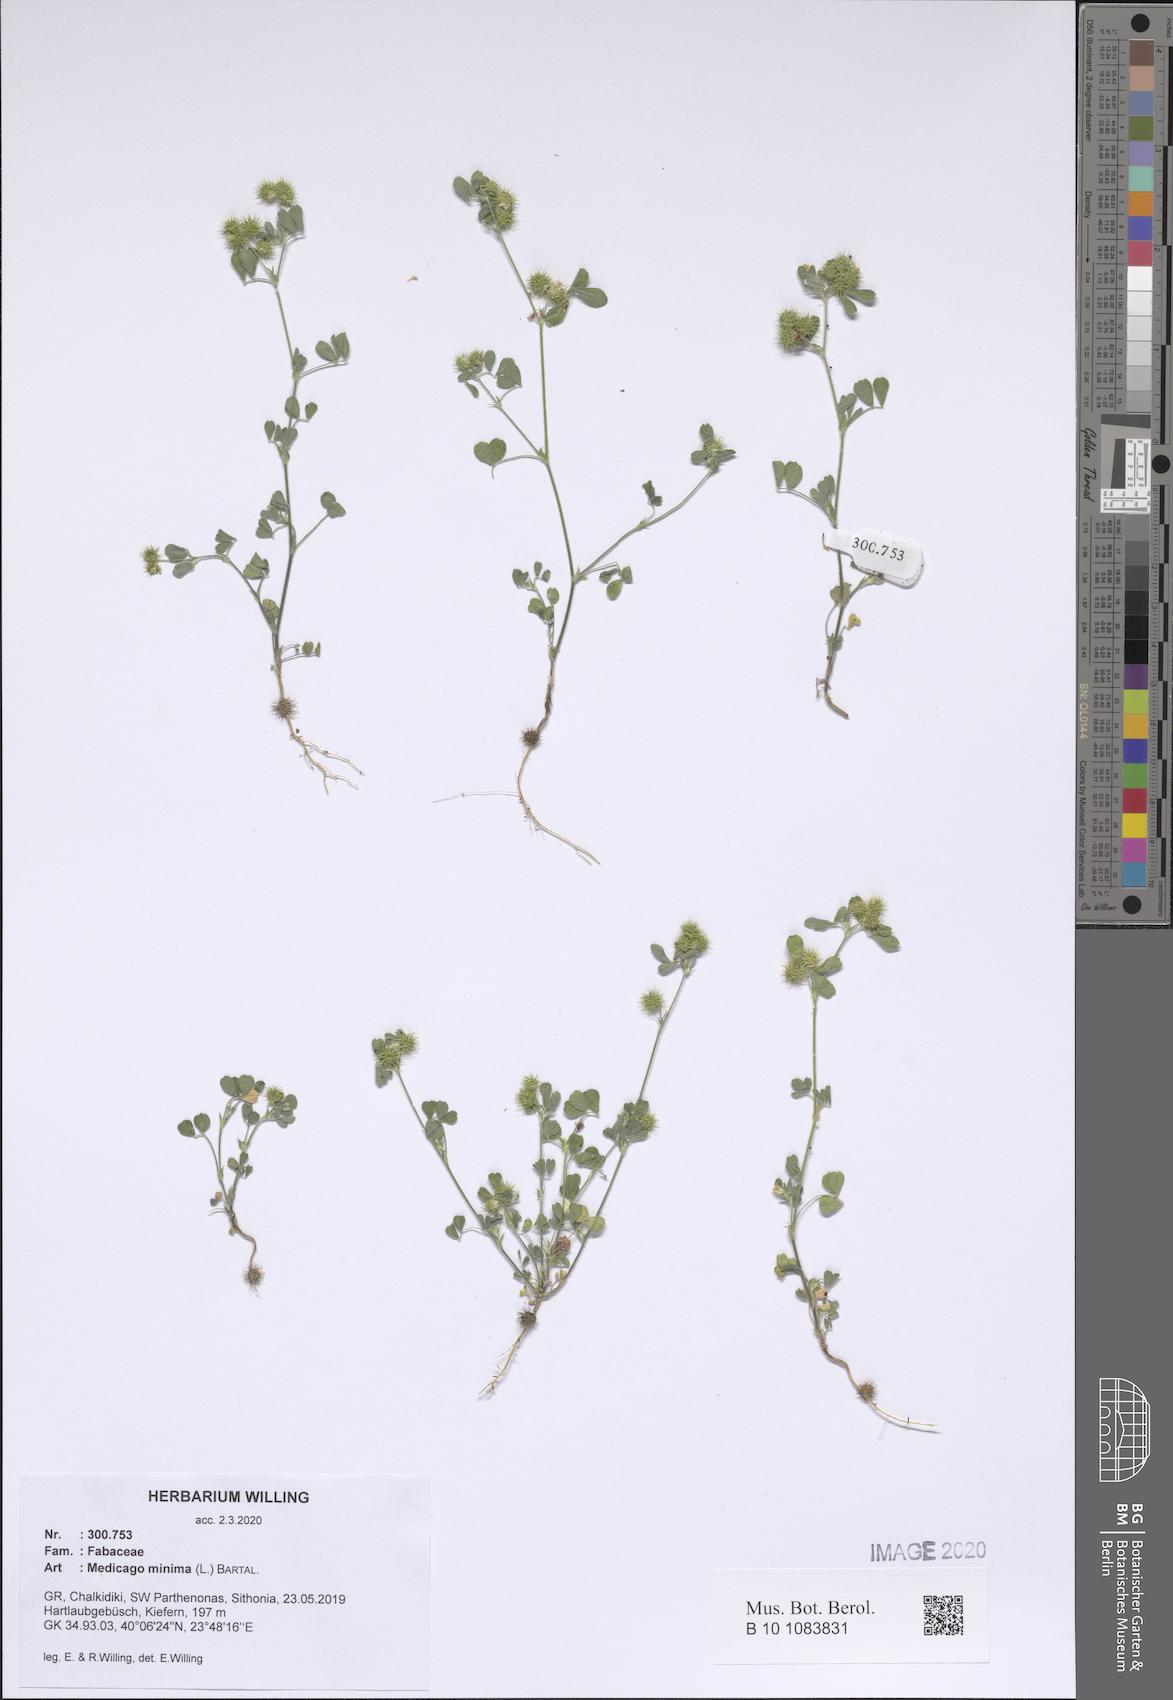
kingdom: Plantae
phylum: Tracheophyta
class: Magnoliopsida
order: Fabales
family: Fabaceae
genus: Medicago
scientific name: Medicago minima
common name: Little bur-clover
